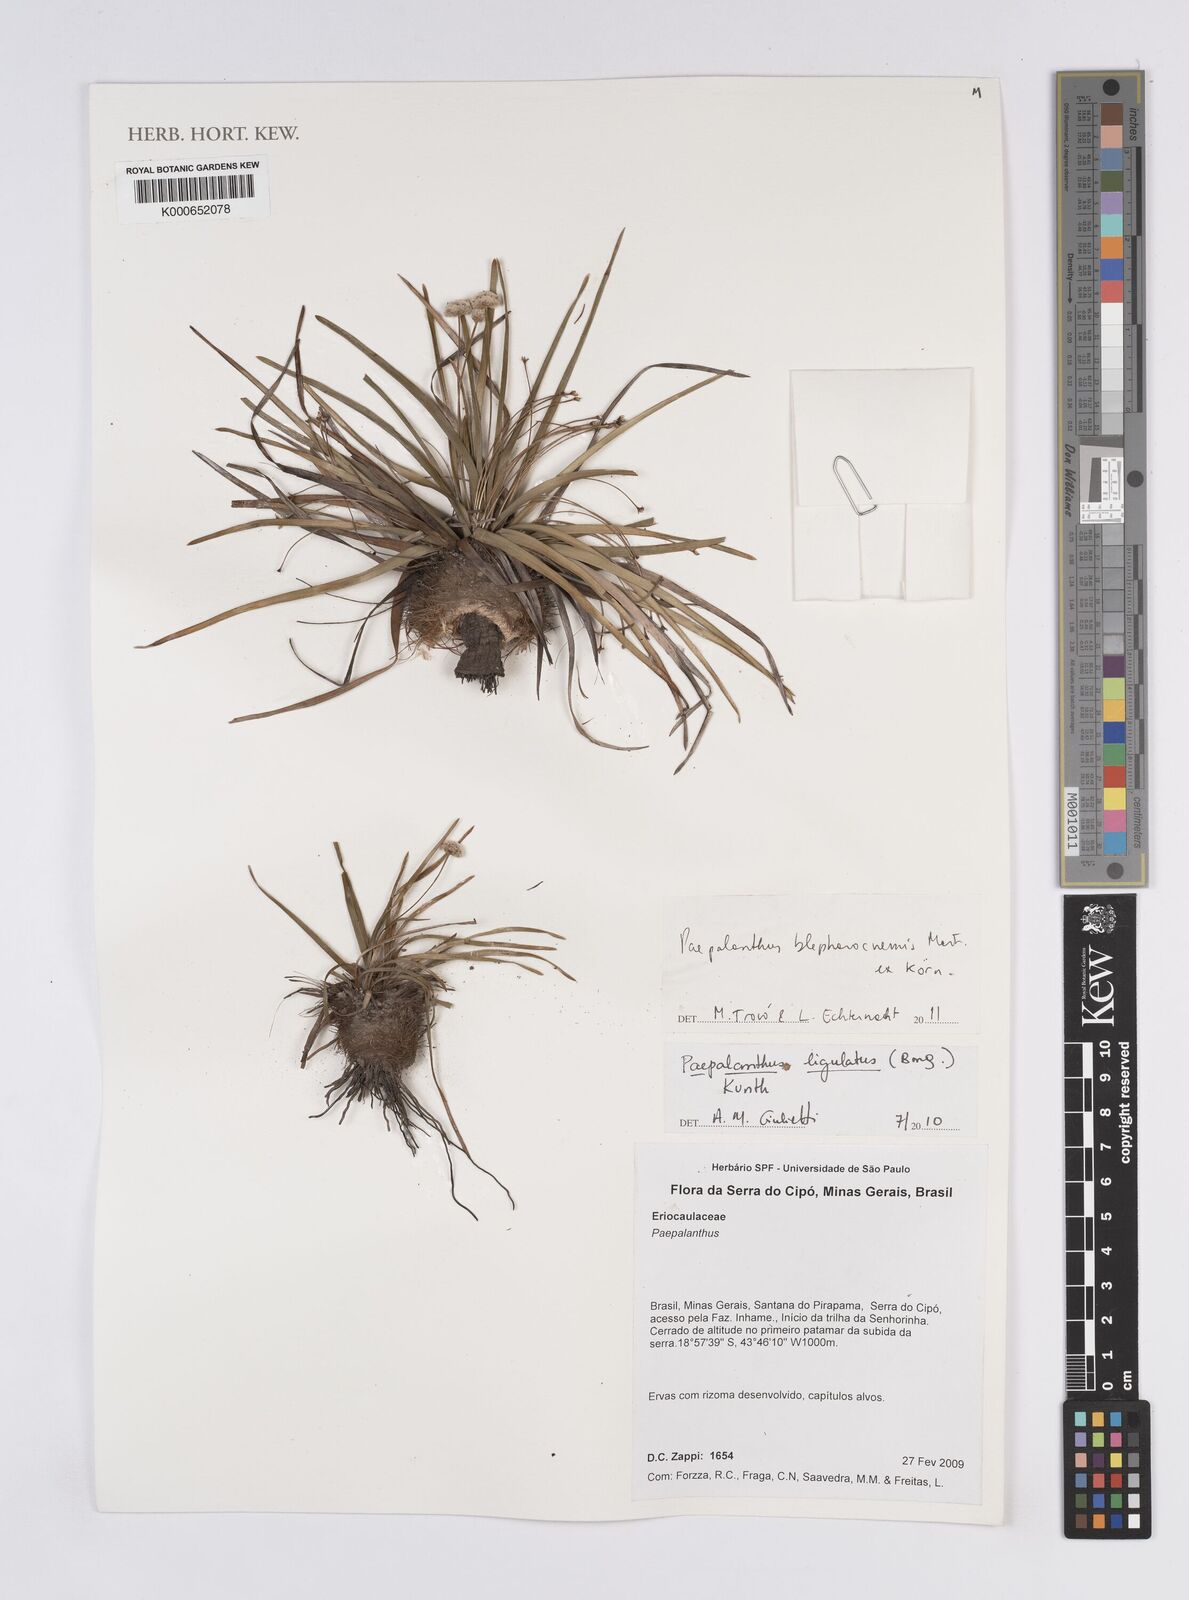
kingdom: Plantae
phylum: Tracheophyta
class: Liliopsida
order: Poales
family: Eriocaulaceae
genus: Paepalanthus
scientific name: Paepalanthus aequalis
